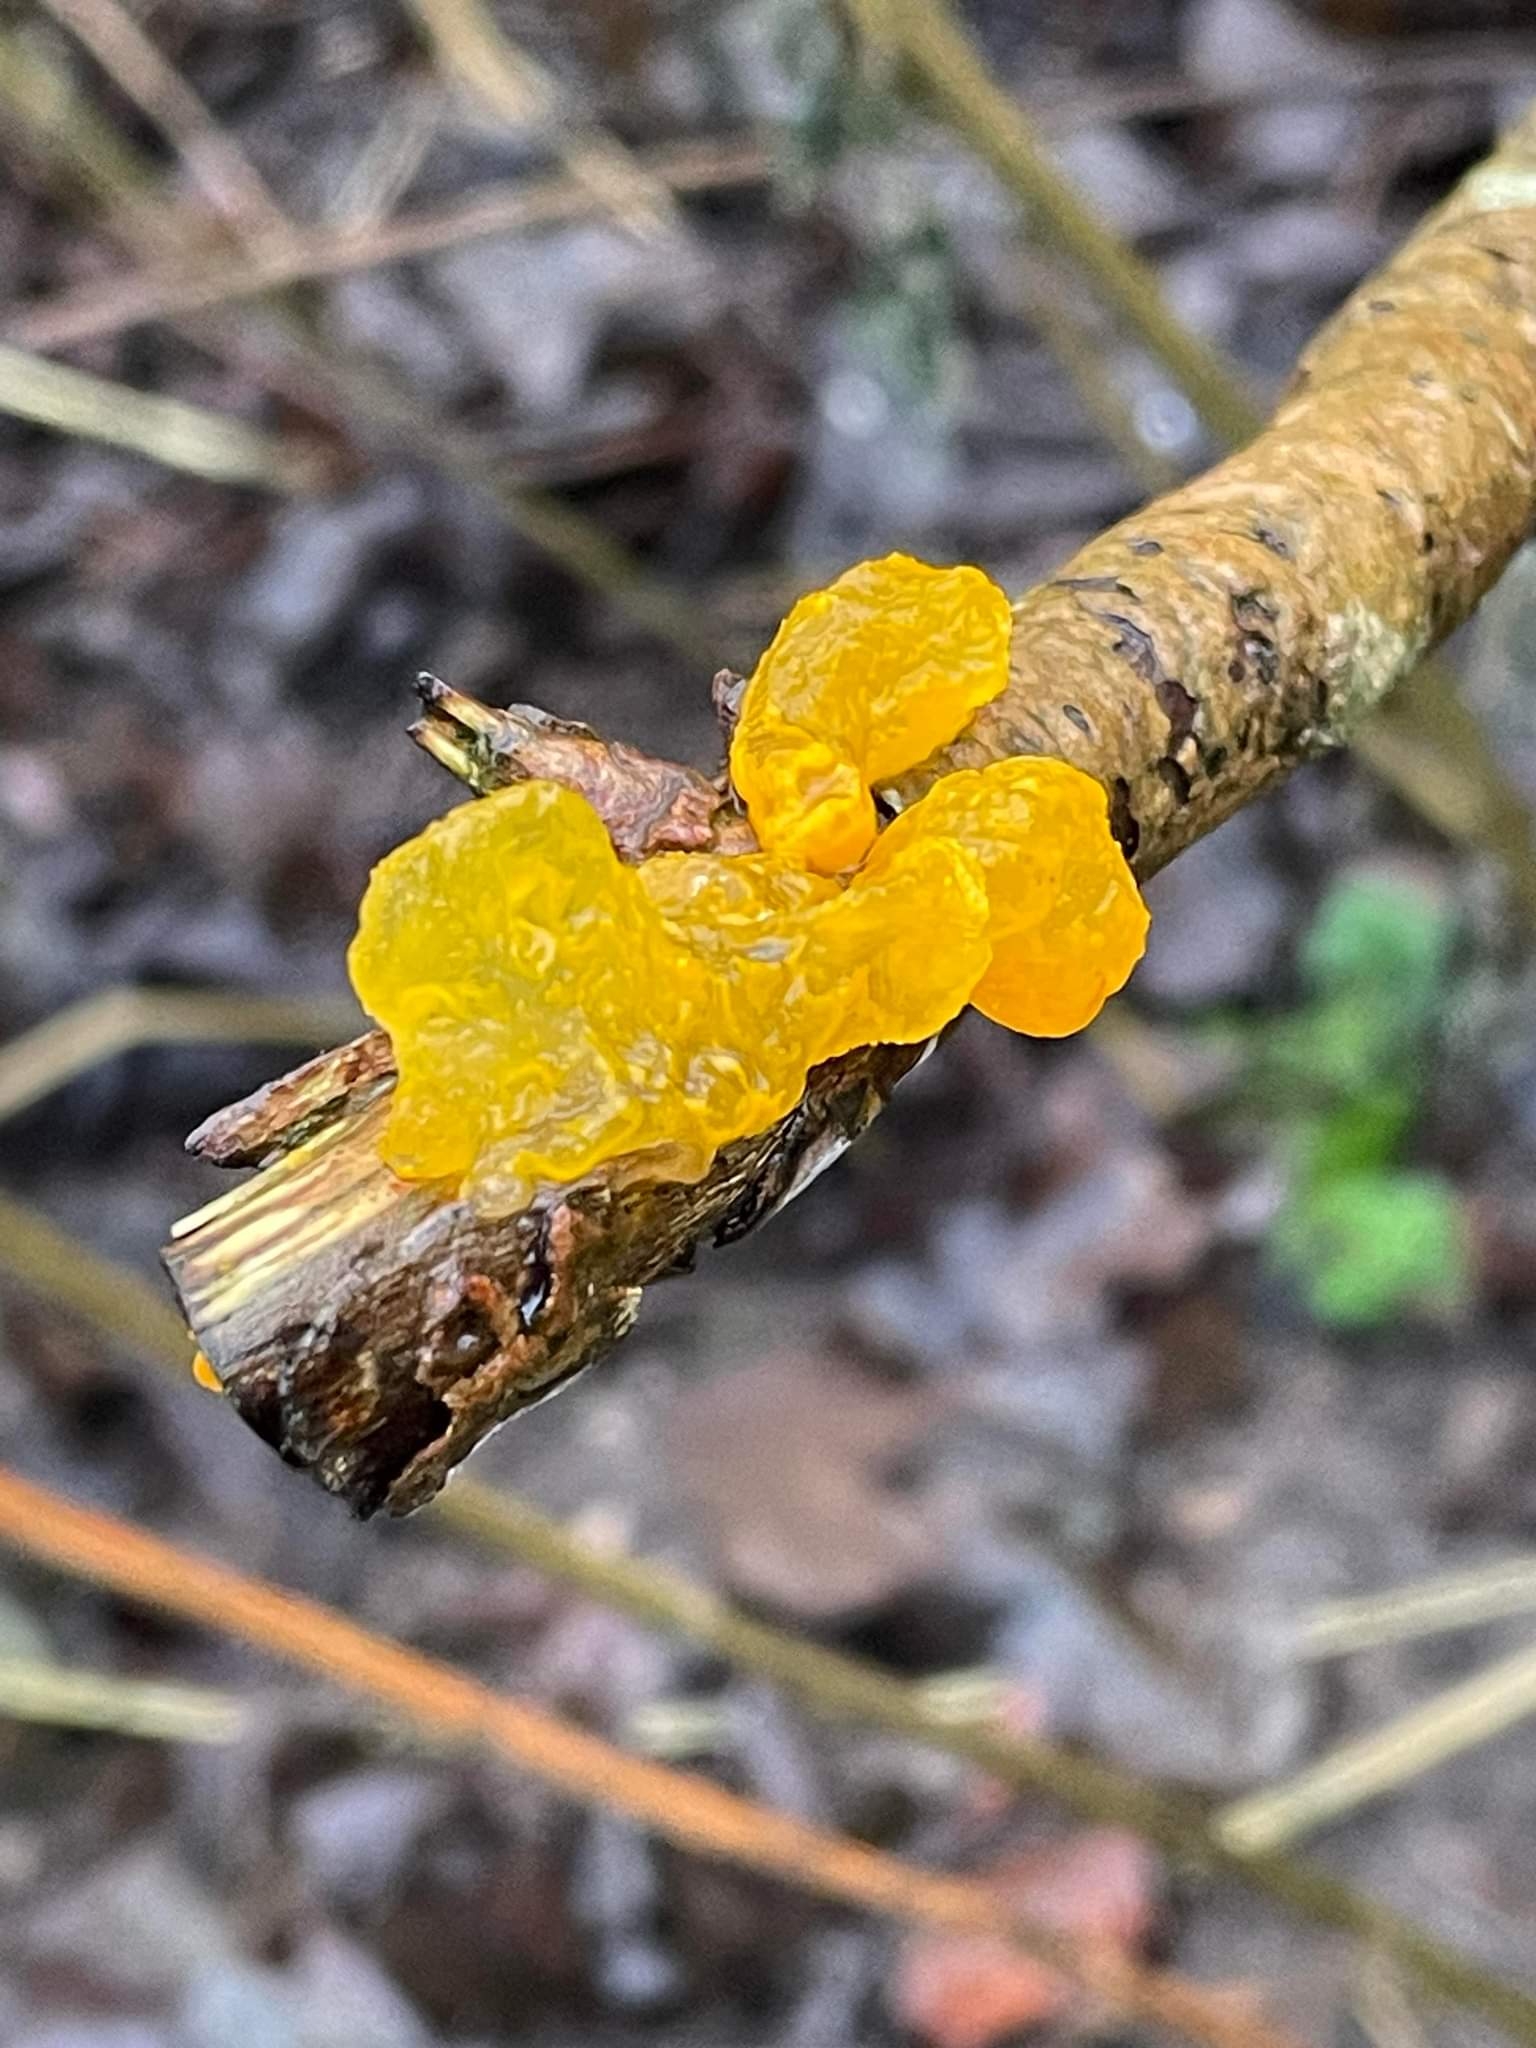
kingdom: Fungi
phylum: Basidiomycota
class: Tremellomycetes
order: Tremellales
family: Tremellaceae
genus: Tremella
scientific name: Tremella mesenterica
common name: Gul bævresvamp
